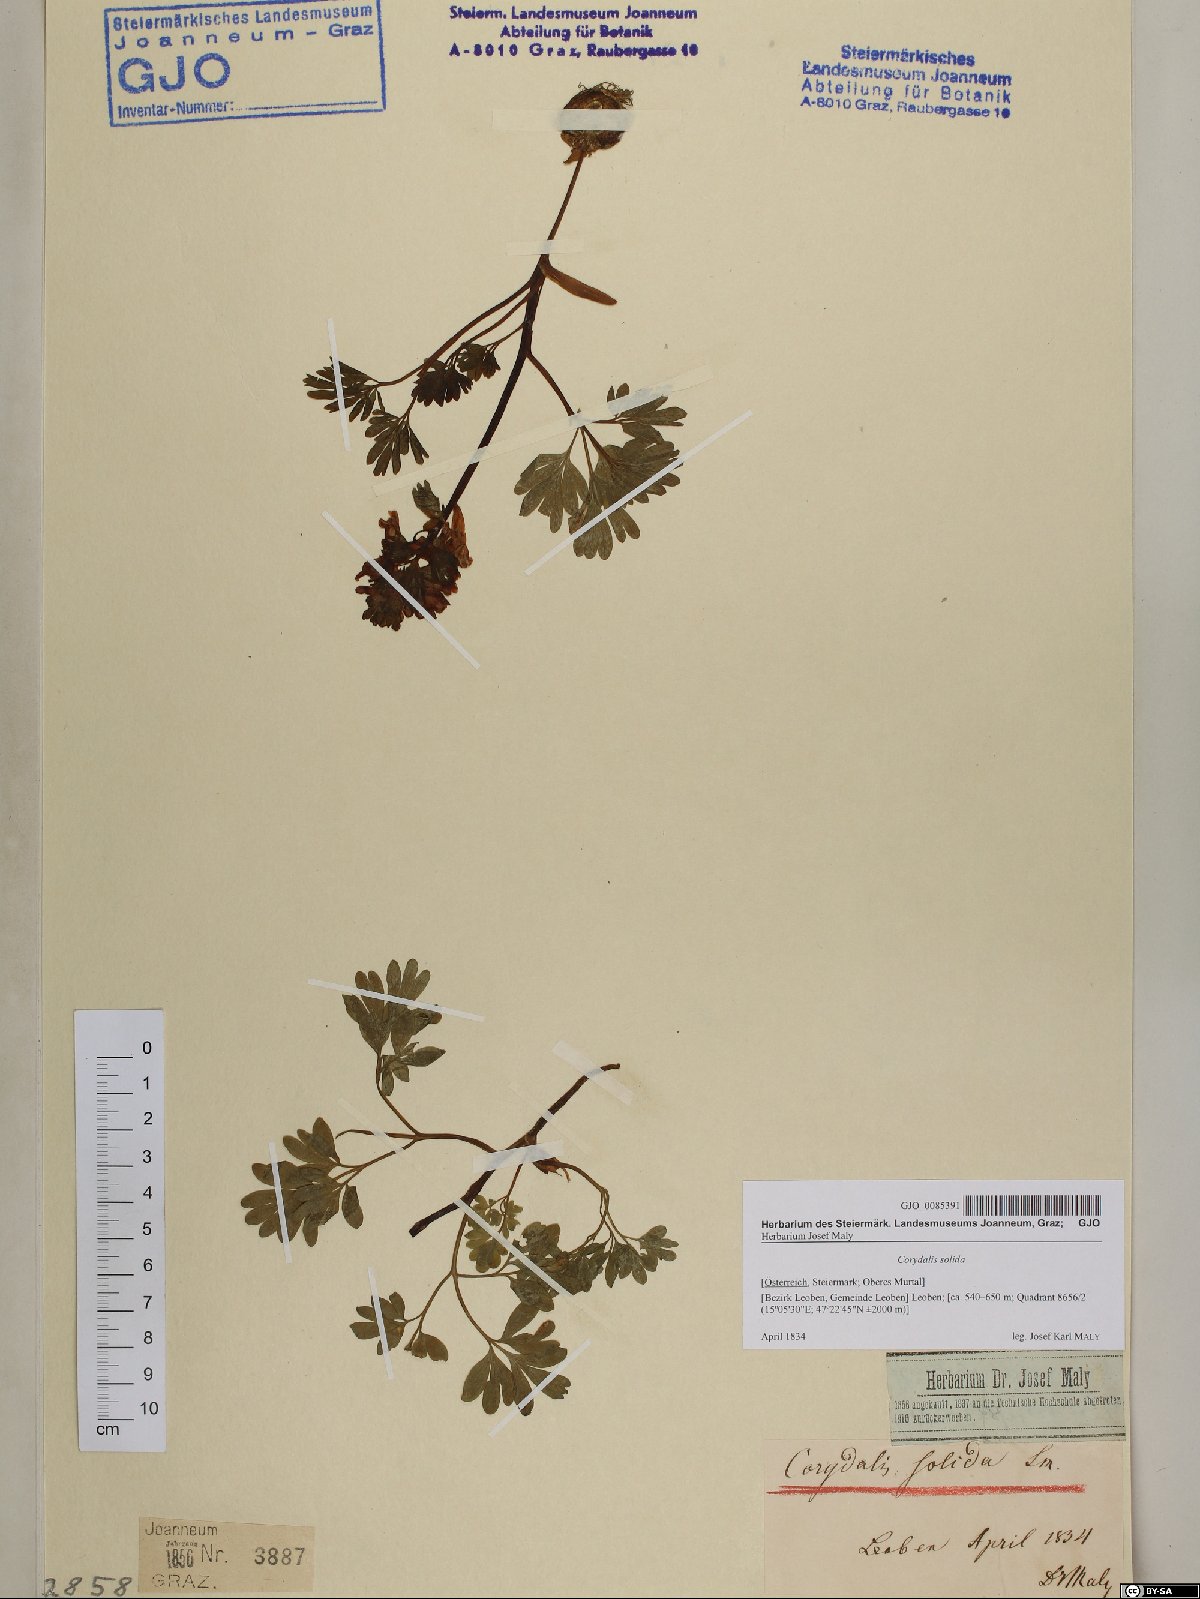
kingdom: Plantae
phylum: Tracheophyta
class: Magnoliopsida
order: Ranunculales
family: Papaveraceae
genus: Corydalis
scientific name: Corydalis solida
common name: Bird-in-a-bush
